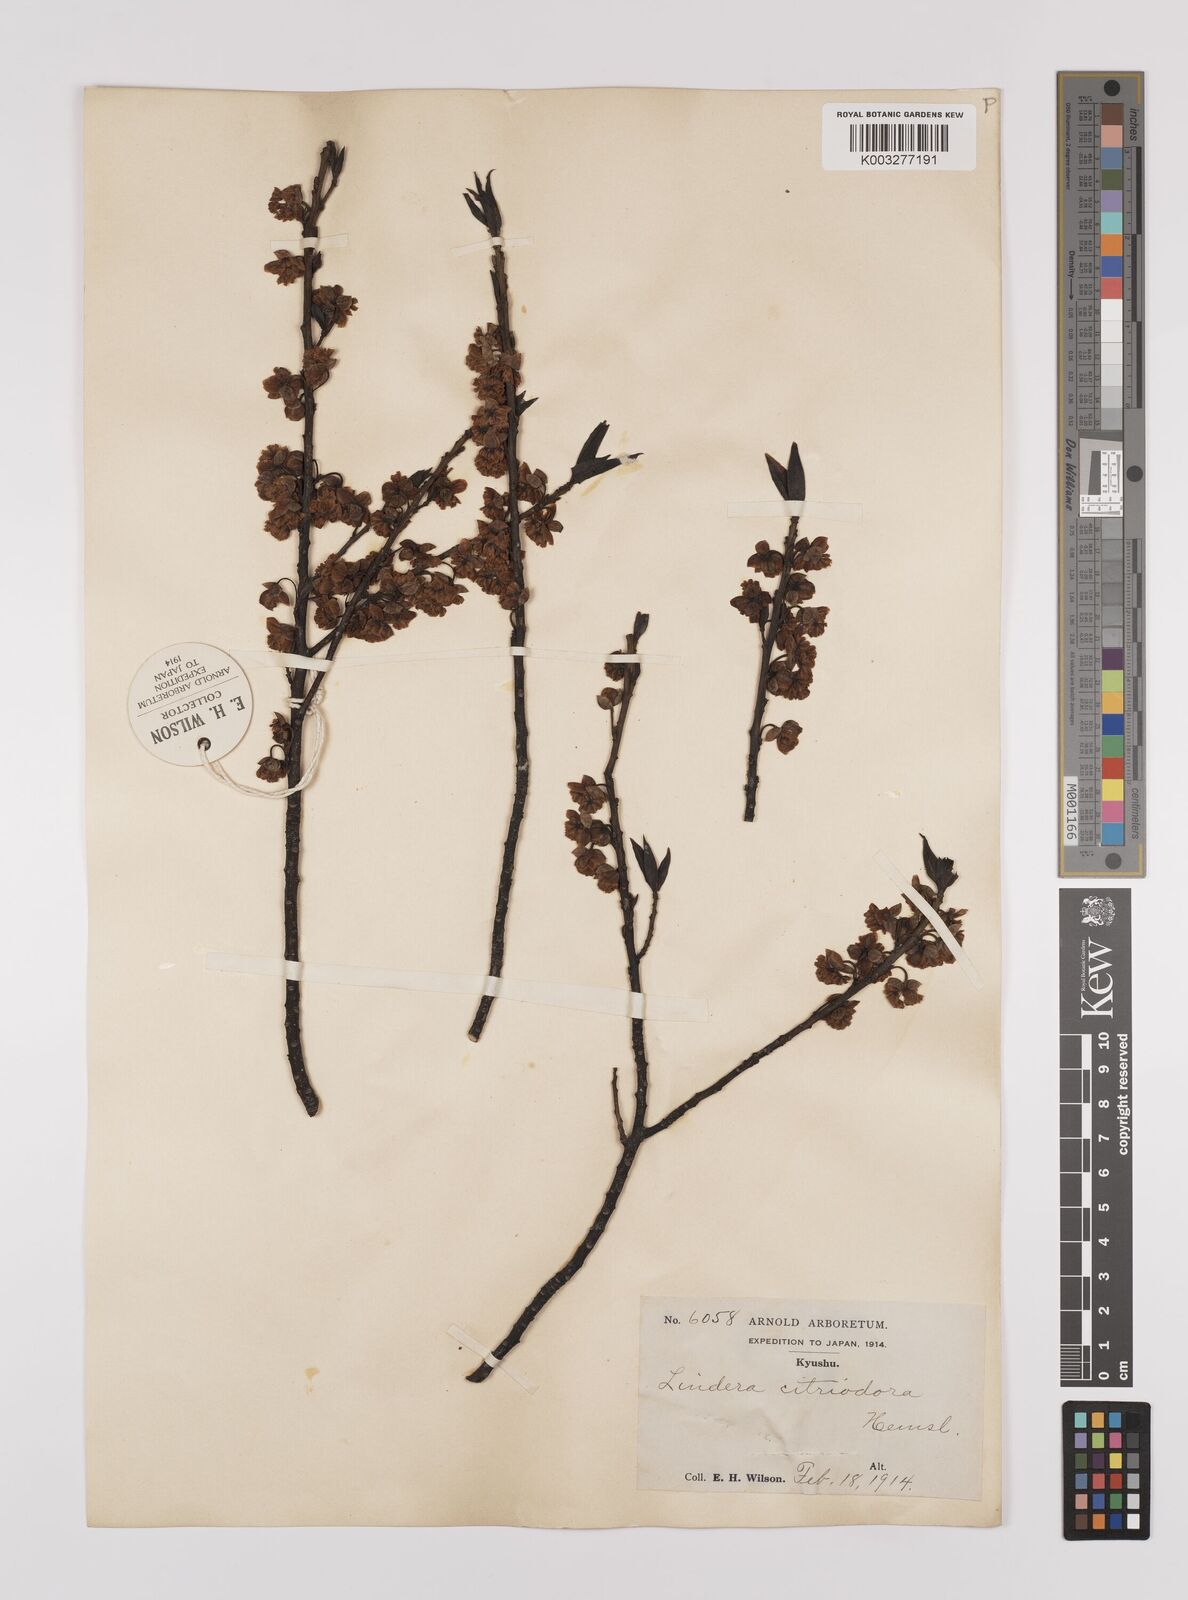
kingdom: Plantae
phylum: Tracheophyta
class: Magnoliopsida
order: Laurales
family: Lauraceae
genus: Lindera
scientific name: Lindera citriodora
